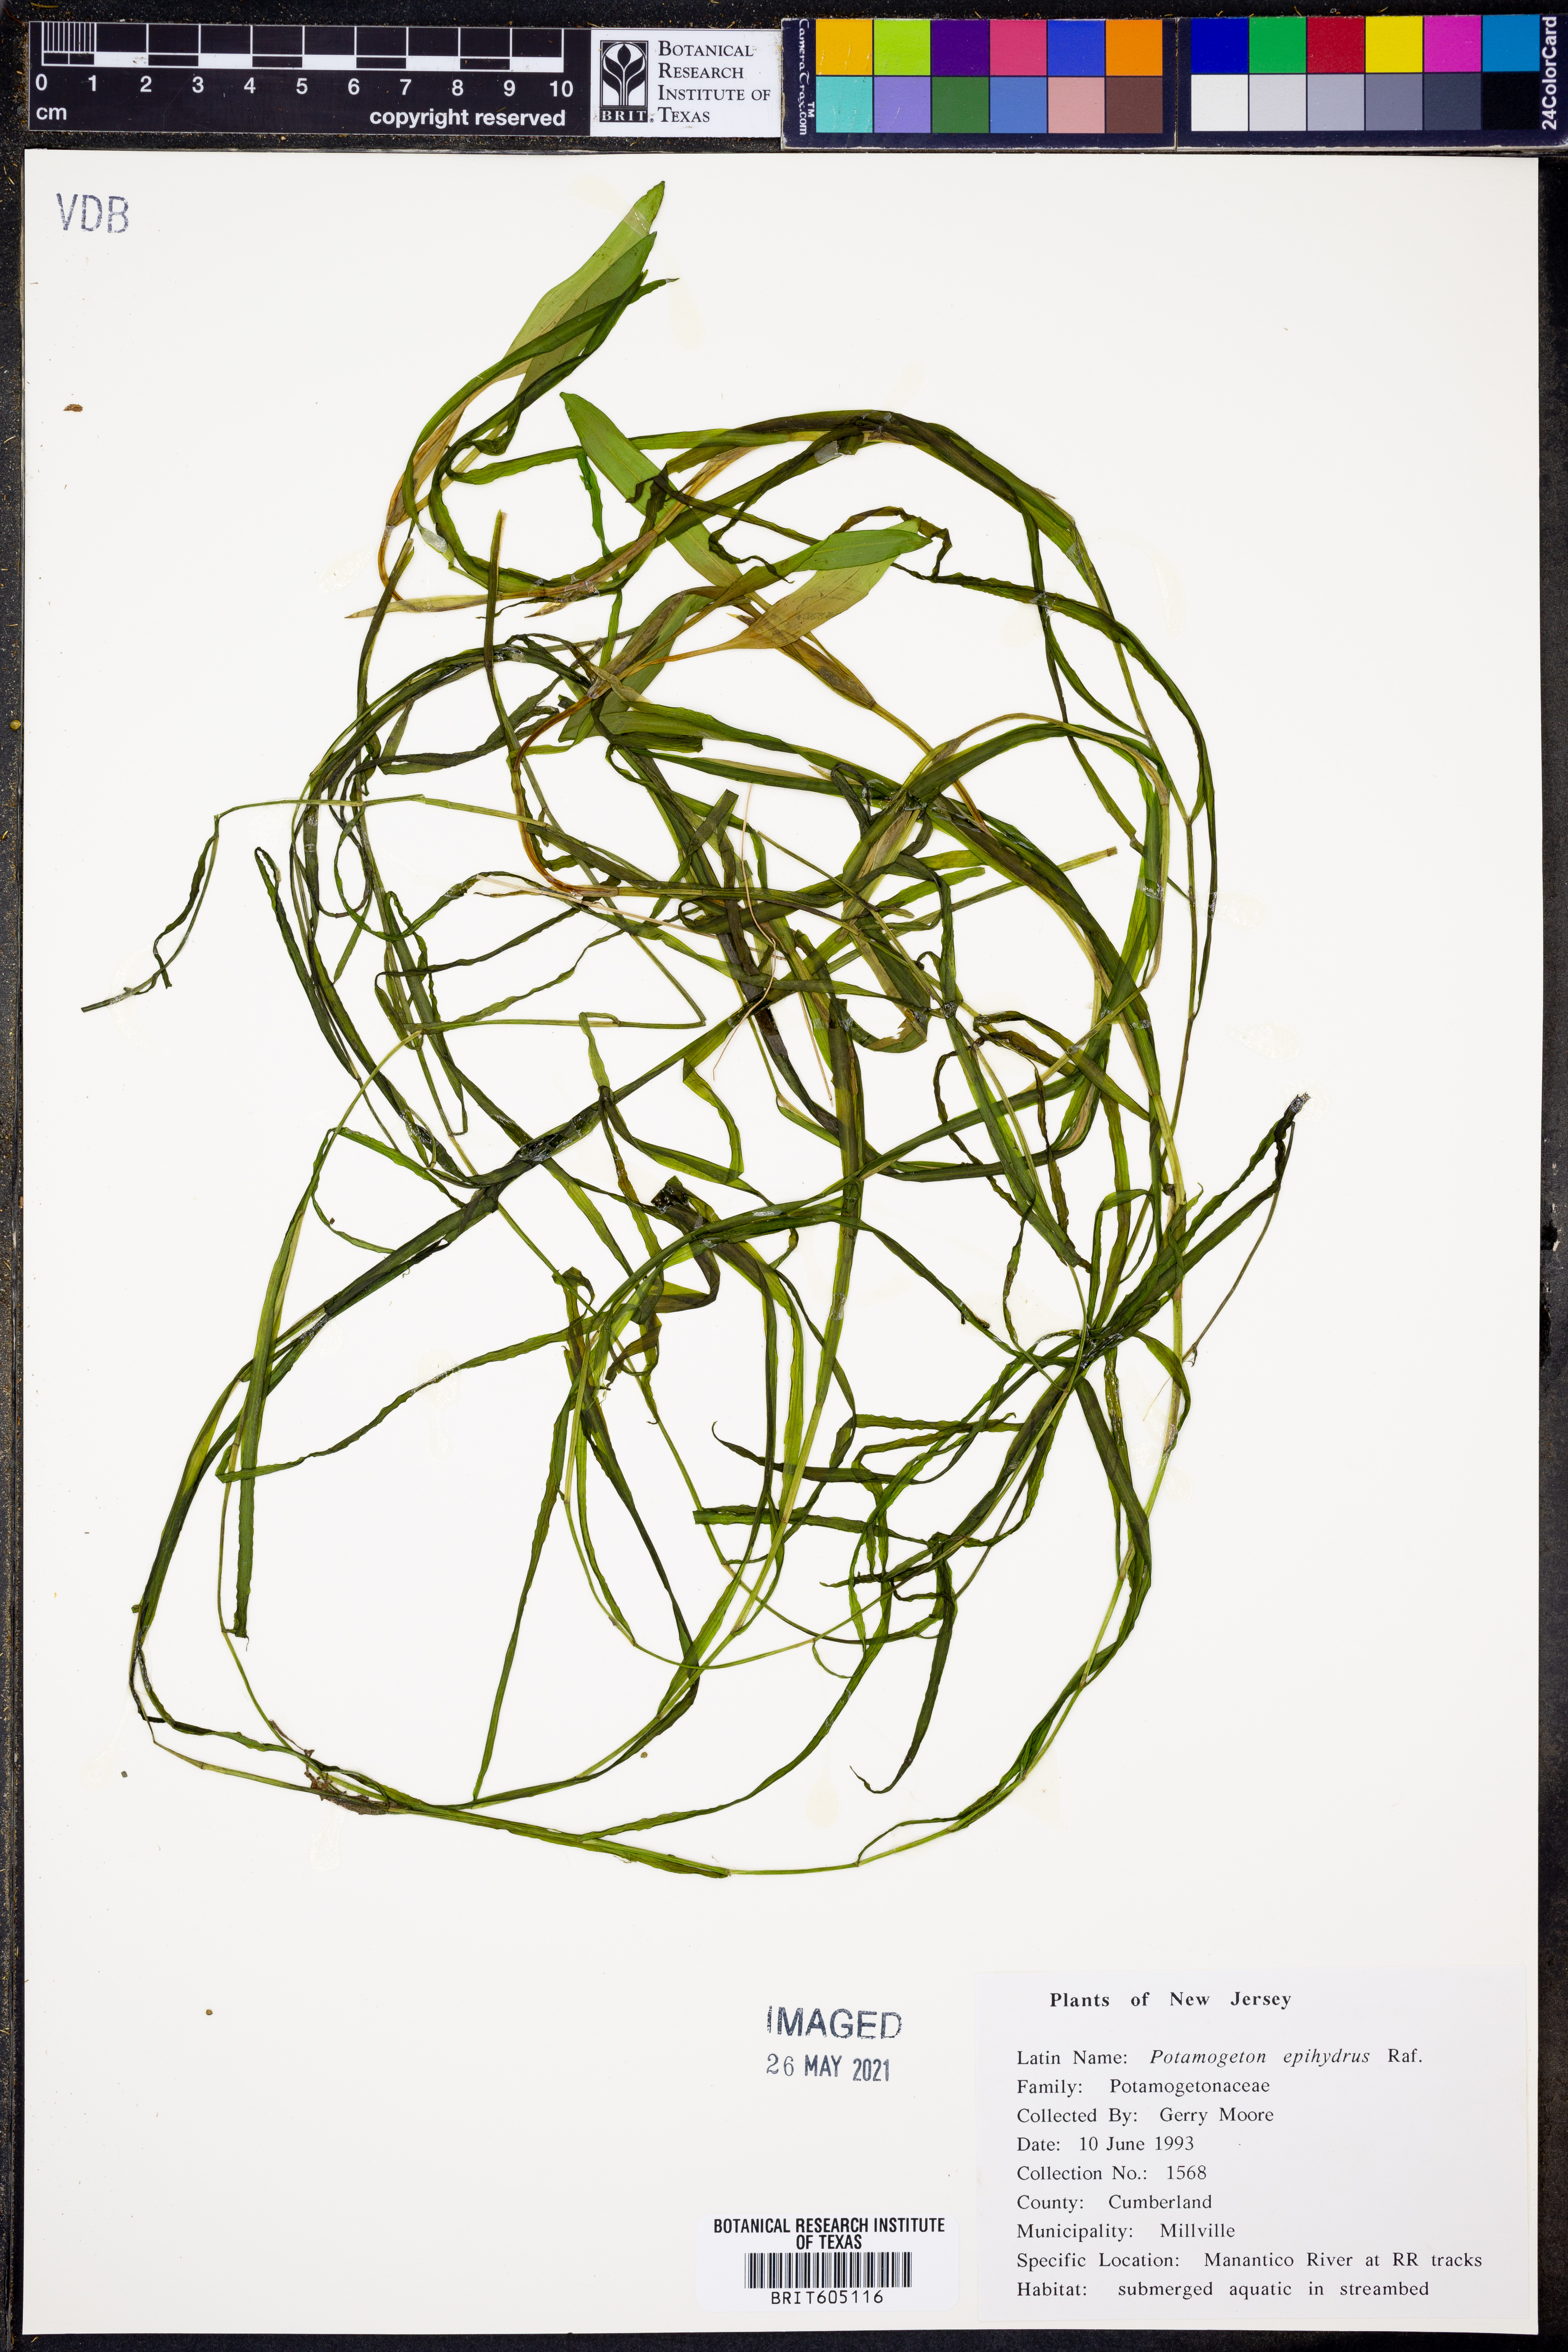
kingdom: Plantae
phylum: Tracheophyta
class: Liliopsida
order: Alismatales
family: Potamogetonaceae
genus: Potamogeton
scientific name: Potamogeton epihydrus
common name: American pondweed
